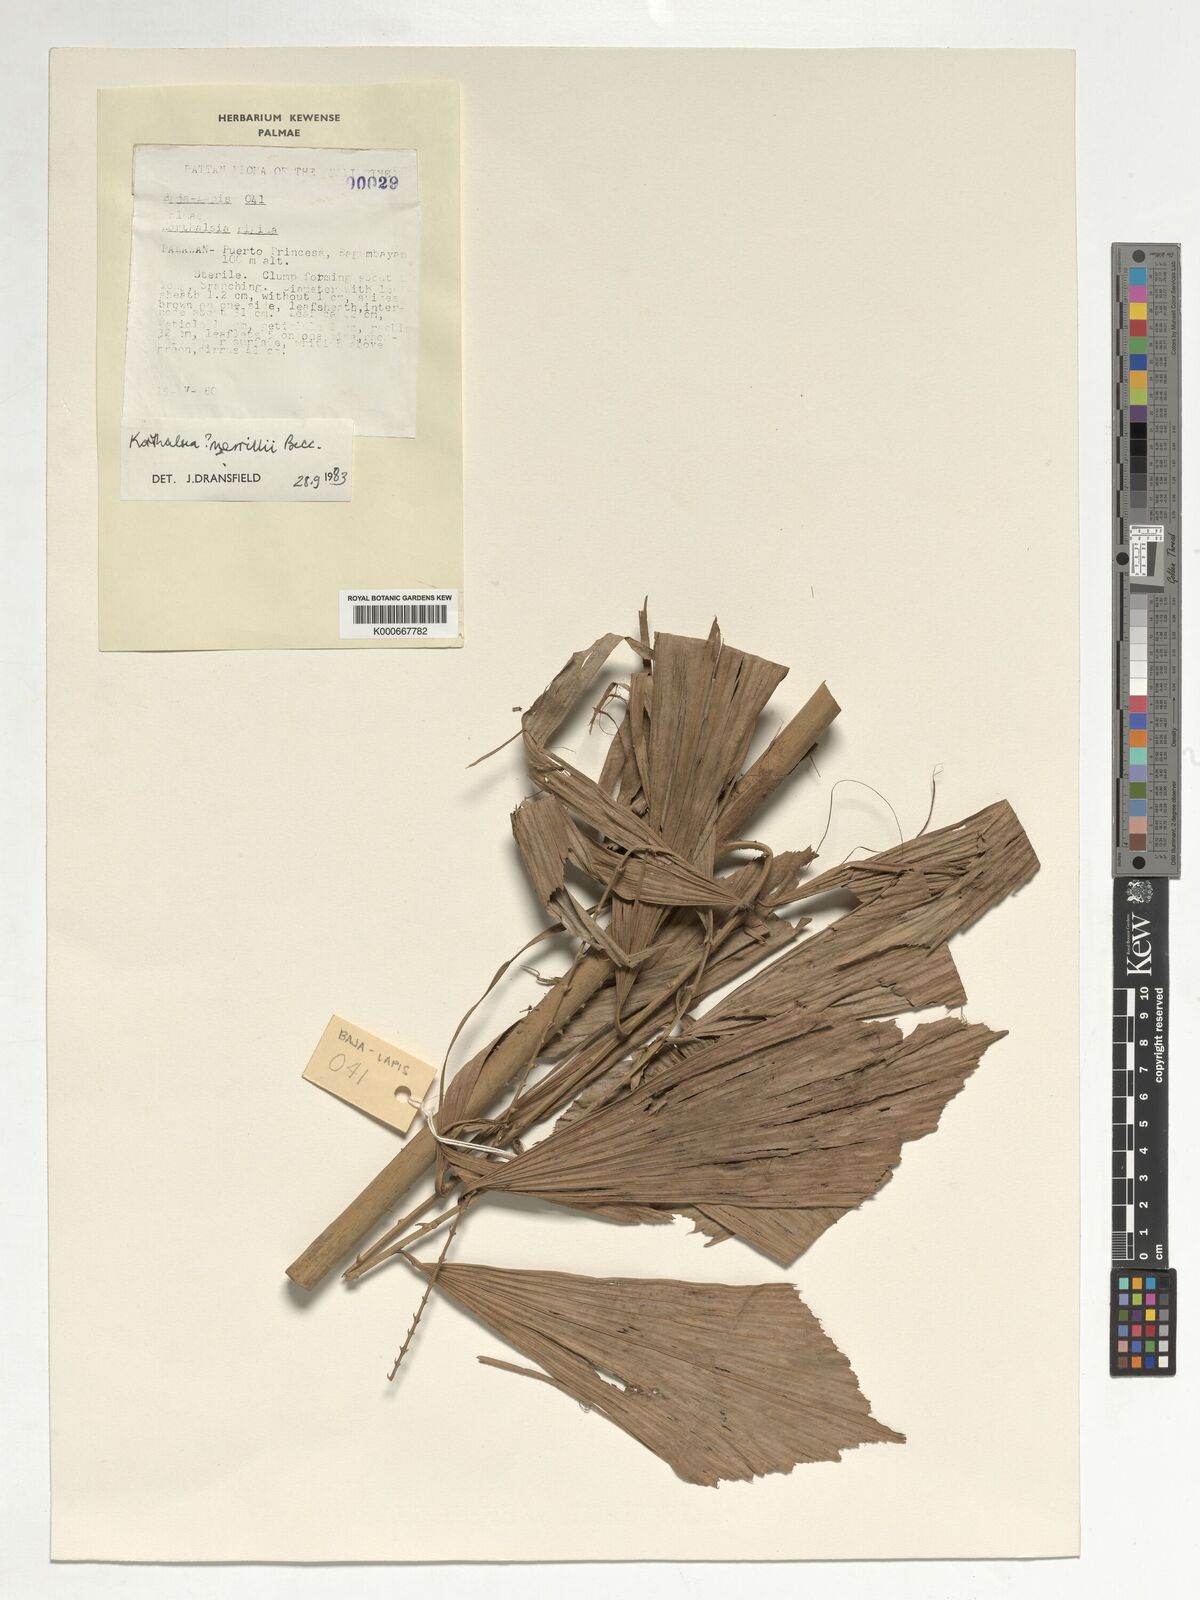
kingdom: Plantae
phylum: Tracheophyta
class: Liliopsida
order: Arecales
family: Arecaceae
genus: Korthalsia
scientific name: Korthalsia merrillii
